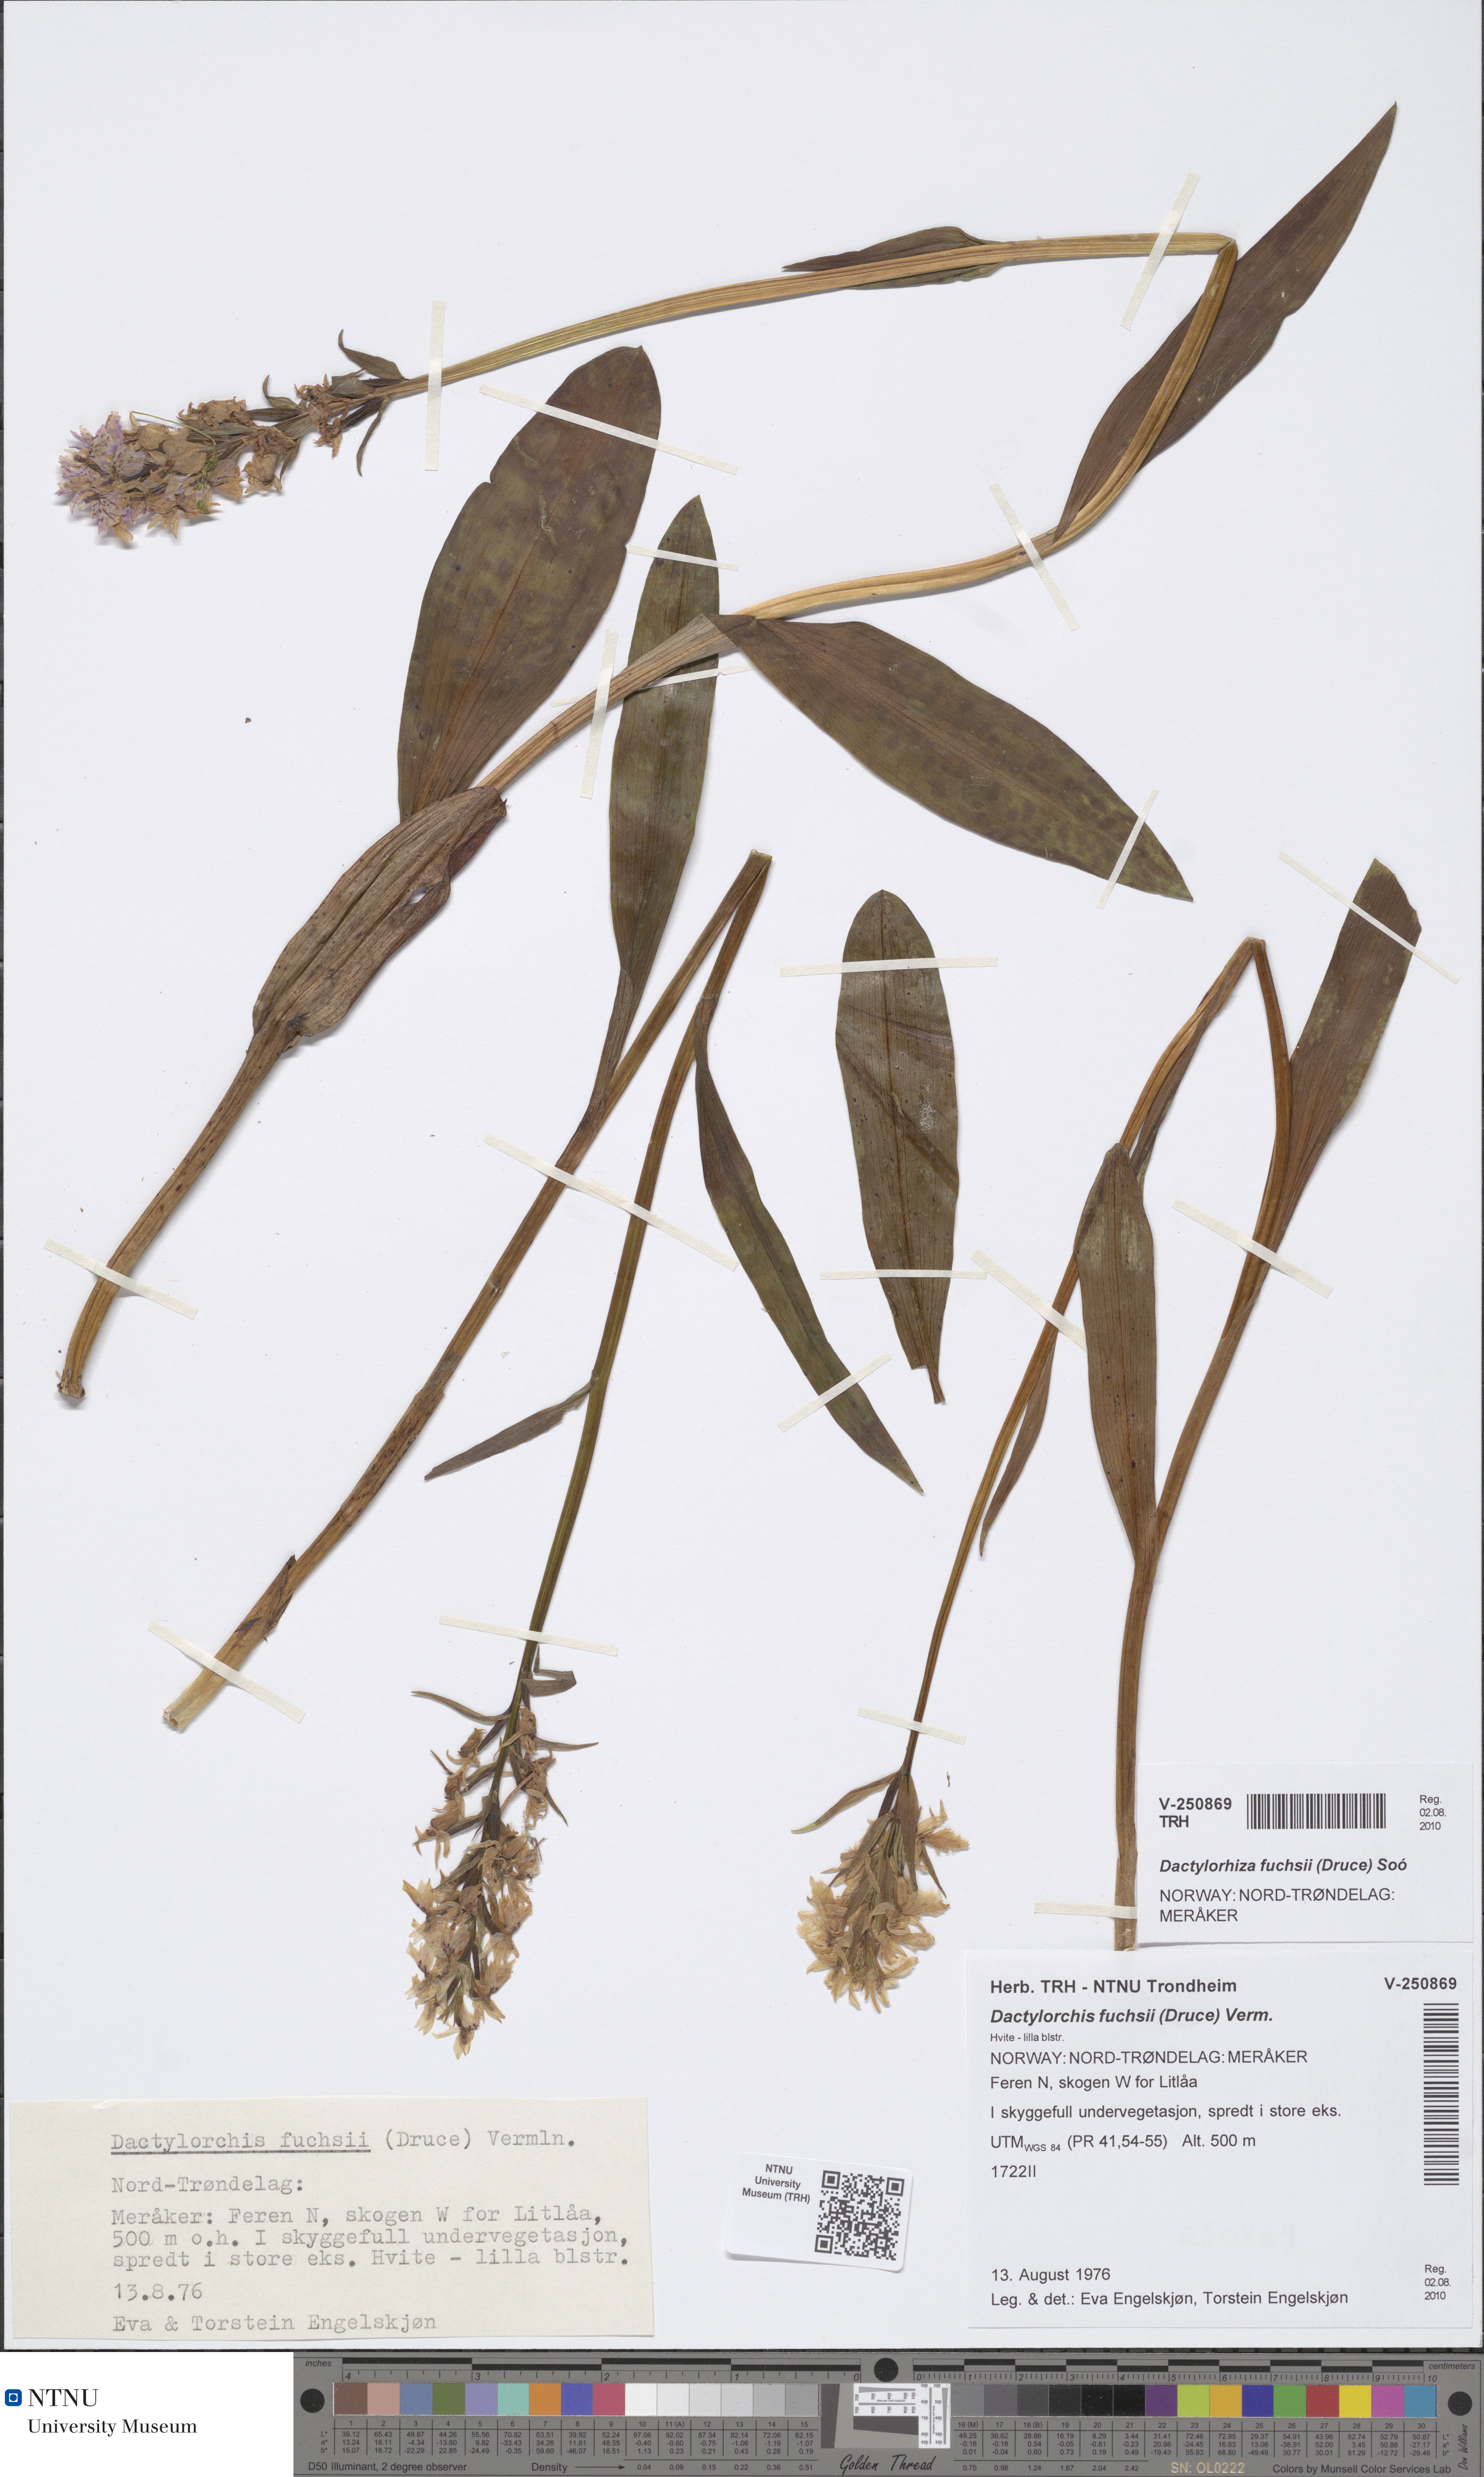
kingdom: Plantae
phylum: Tracheophyta
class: Liliopsida
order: Asparagales
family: Orchidaceae
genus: Dactylorhiza
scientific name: Dactylorhiza maculata
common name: Heath spotted-orchid
